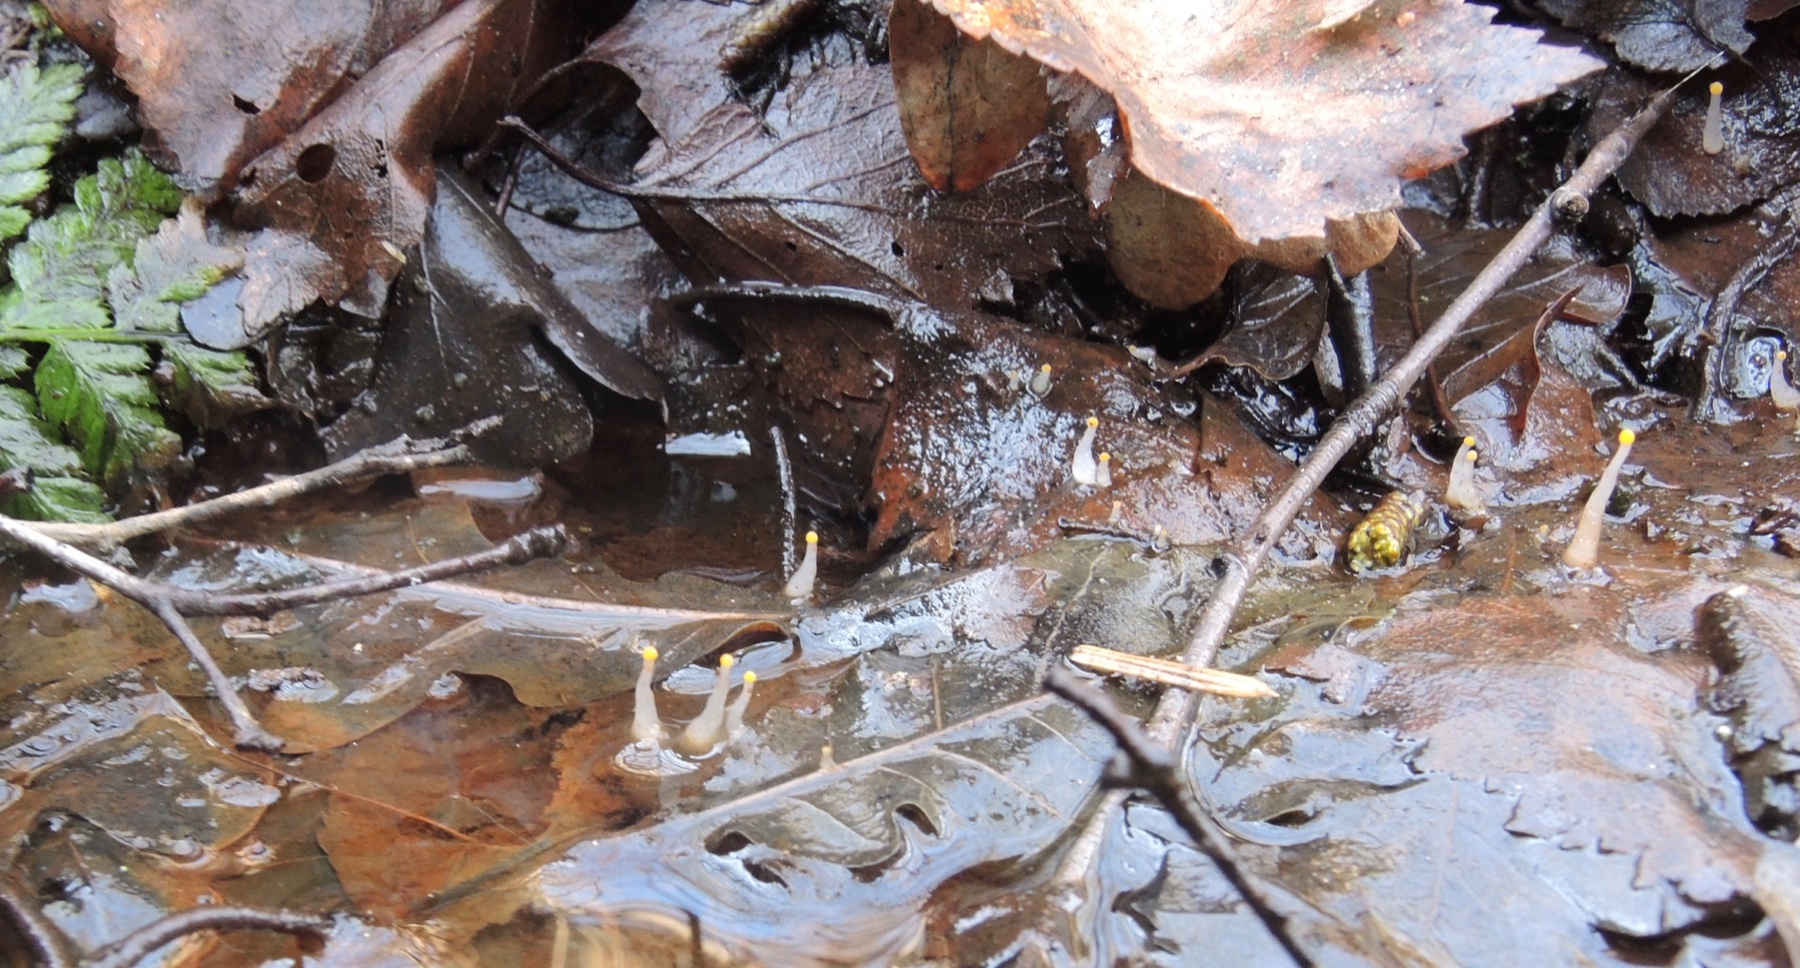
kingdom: Fungi
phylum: Ascomycota
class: Leotiomycetes
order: Helotiales
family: Cenangiaceae
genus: Mitrula
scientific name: Mitrula paludosa
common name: gul nøkketunge
